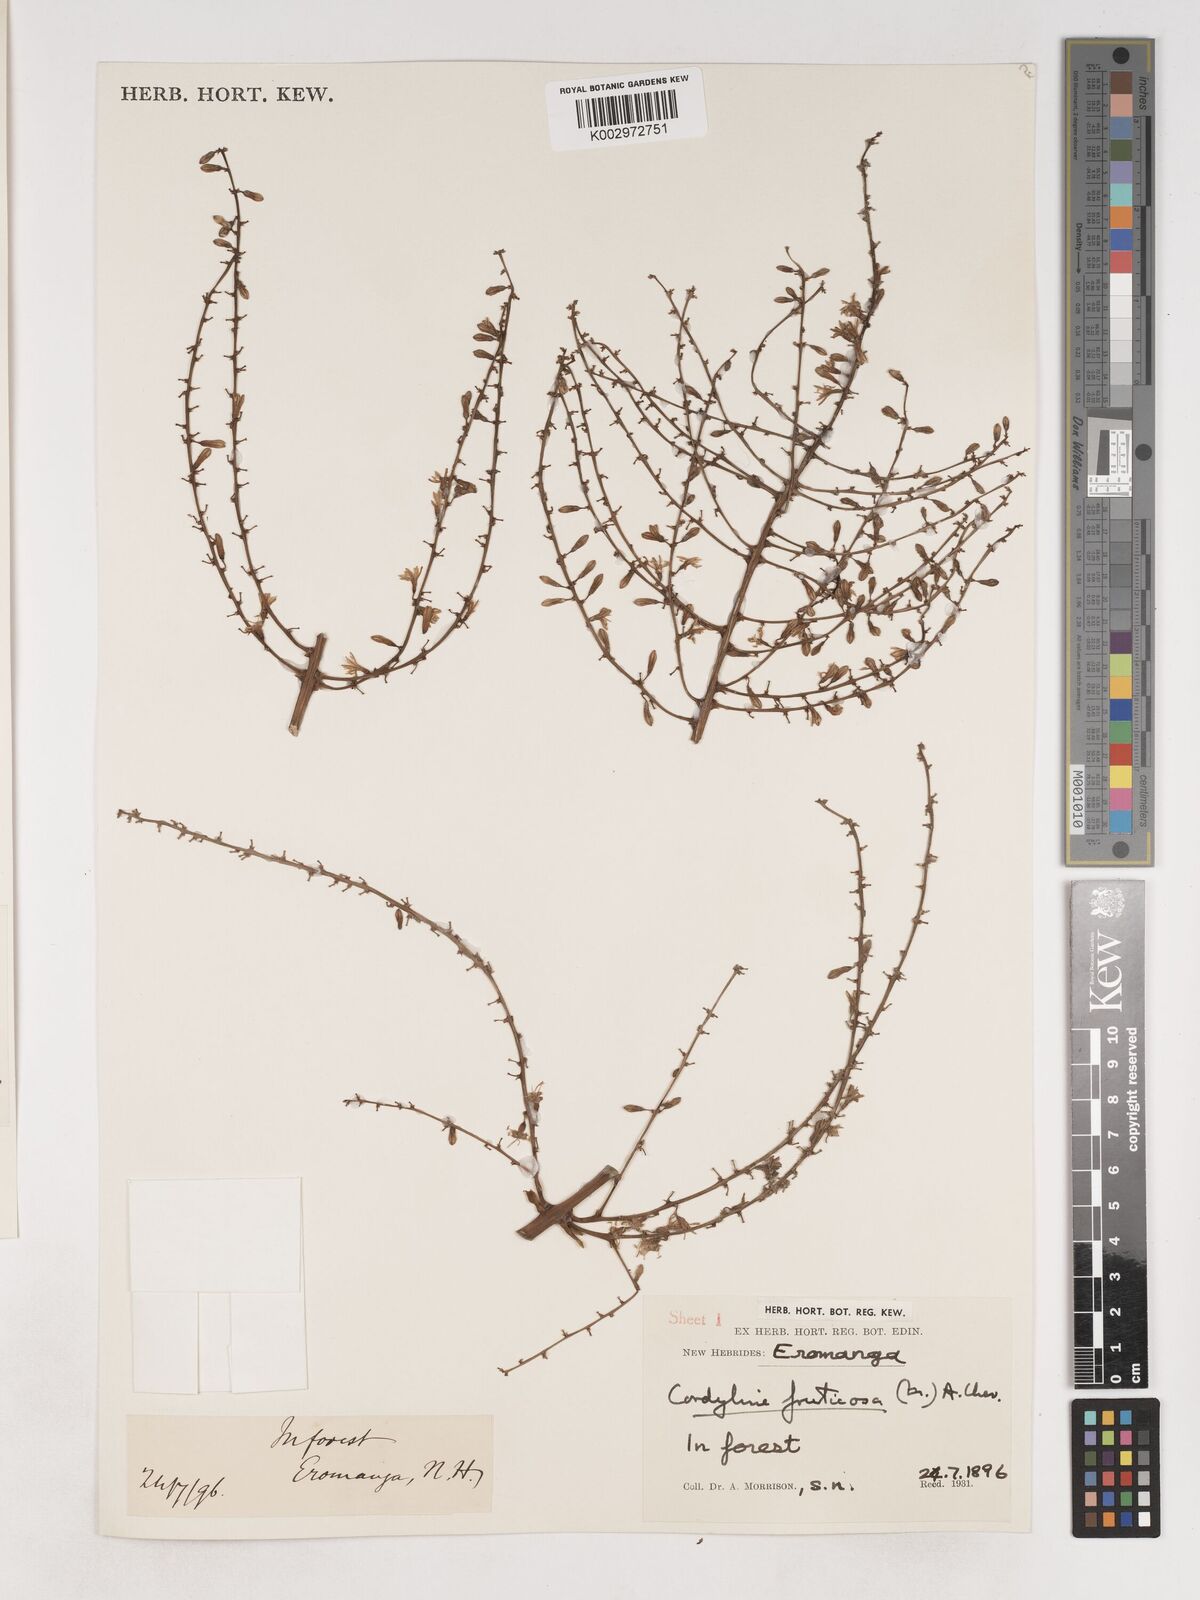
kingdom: Plantae
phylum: Tracheophyta
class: Liliopsida
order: Asparagales
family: Asparagaceae
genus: Cordyline
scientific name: Cordyline fruticosa
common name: Good-luck-plant
